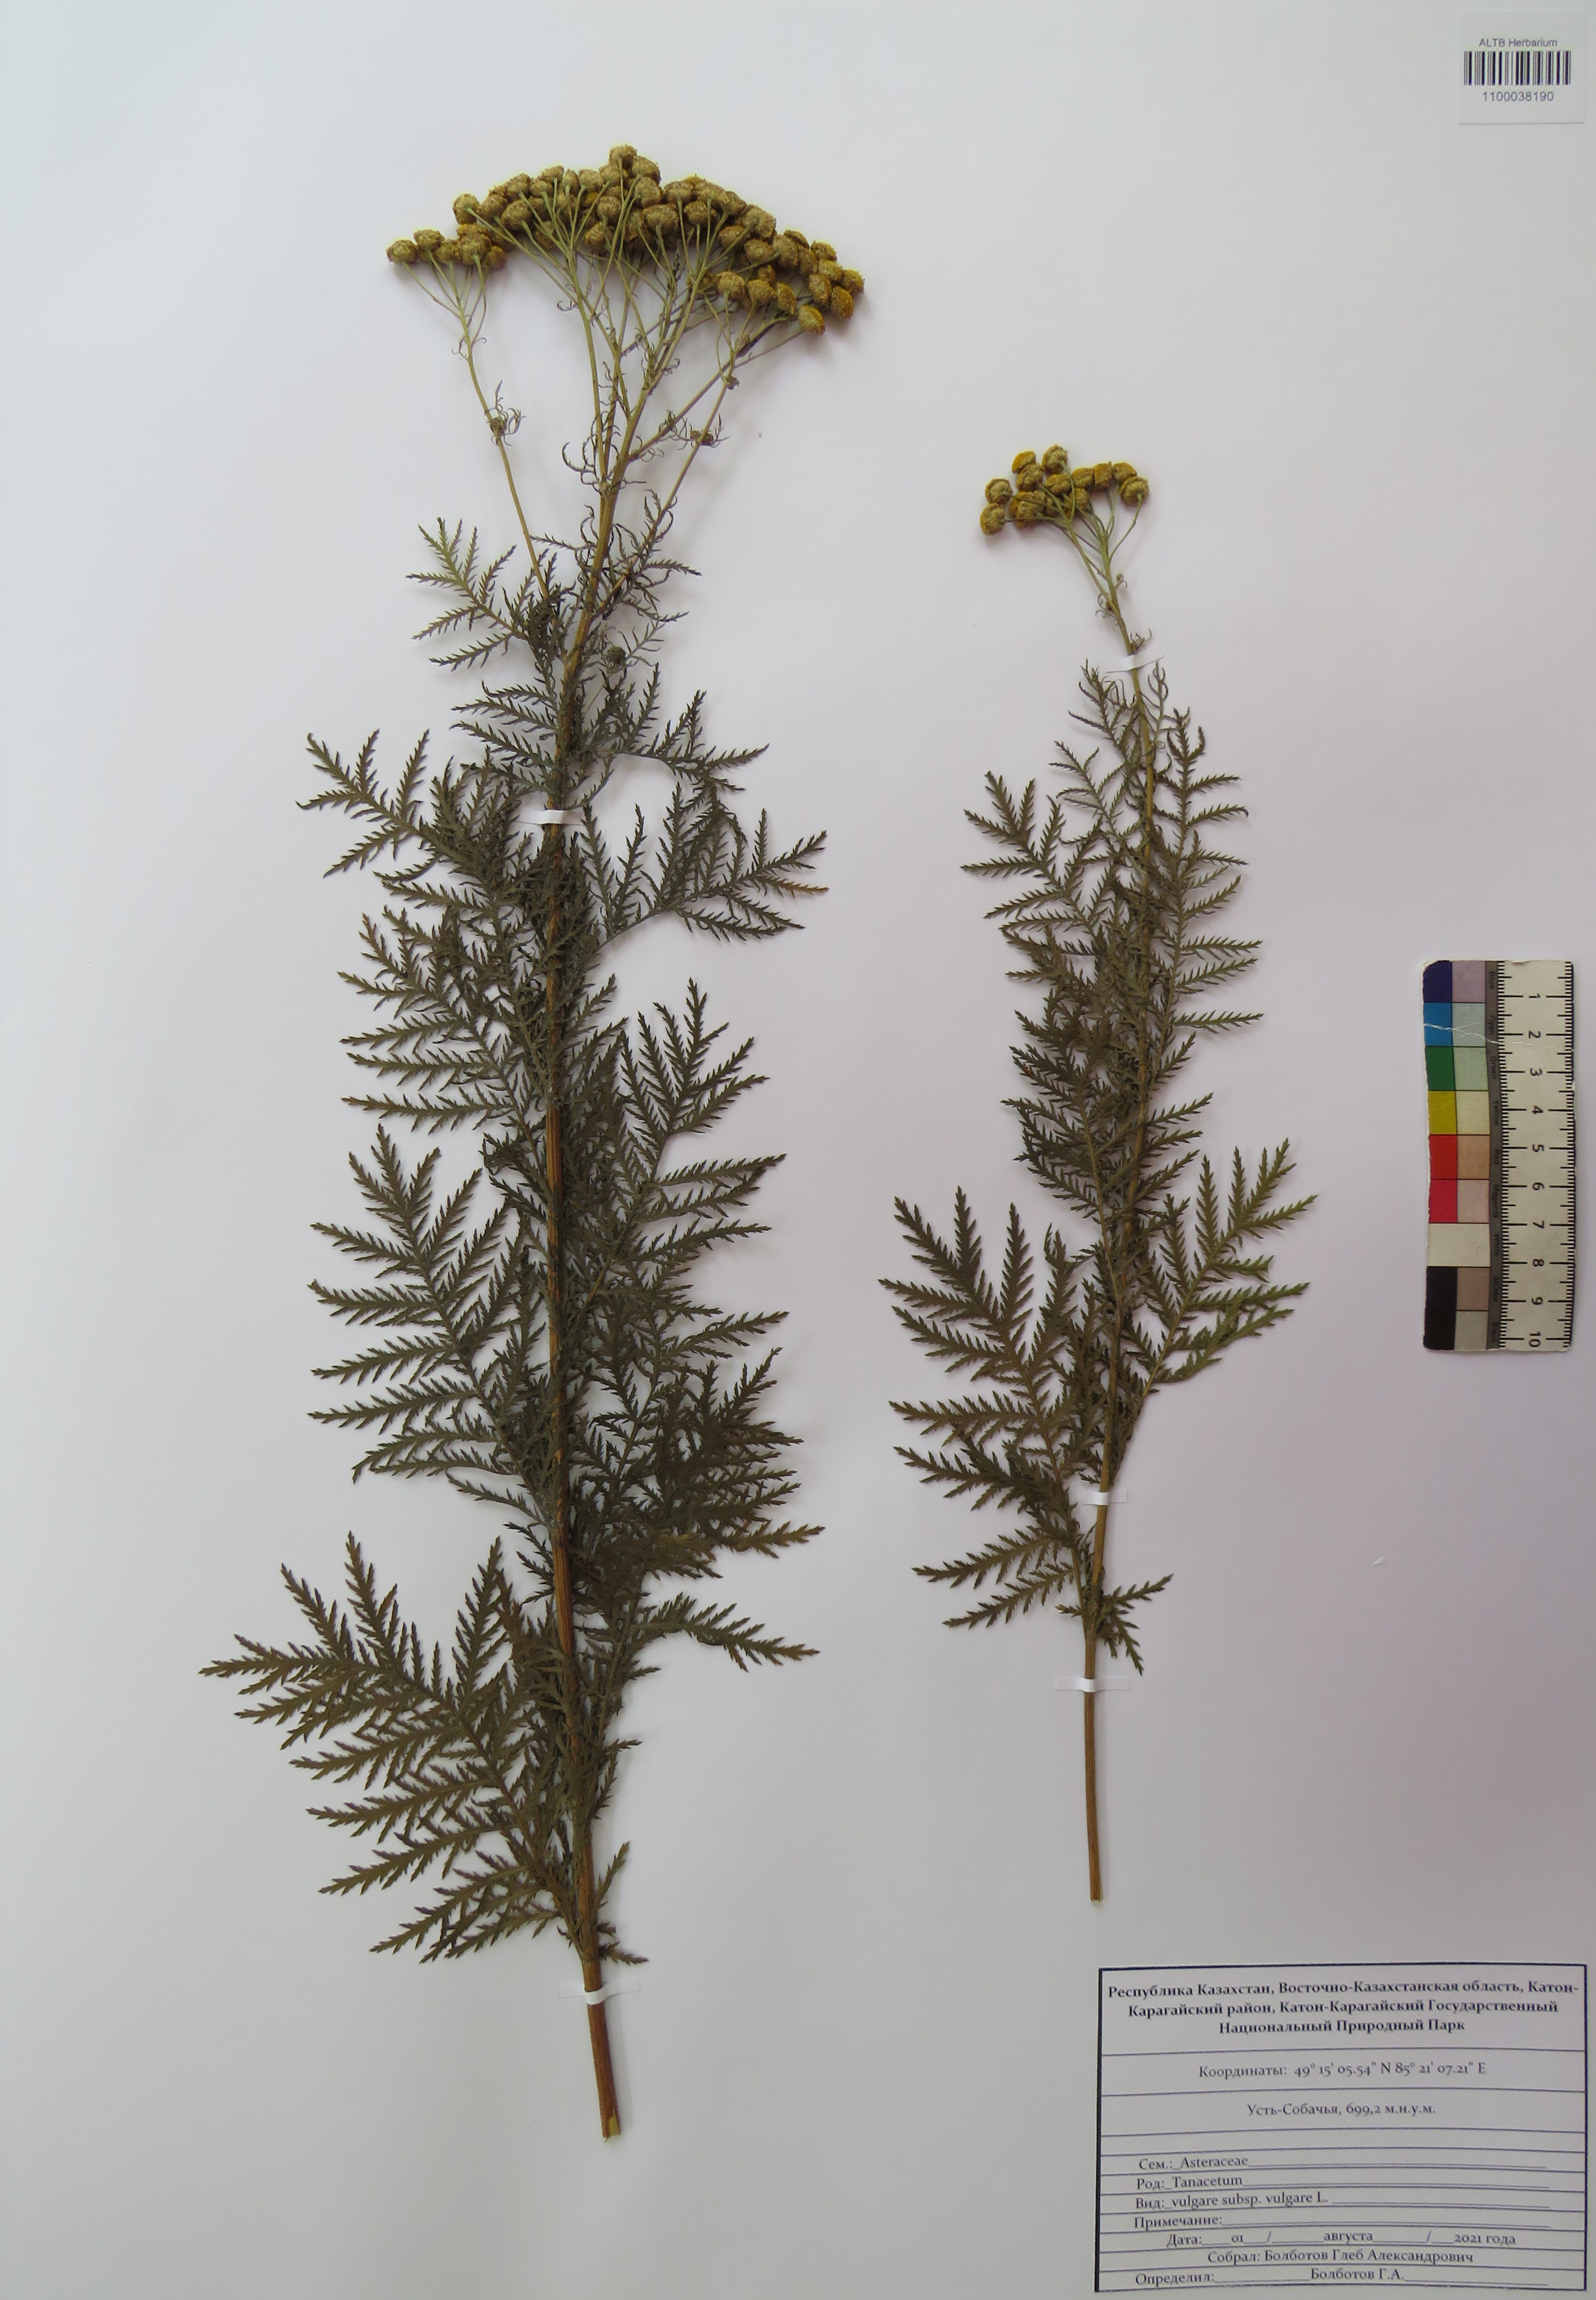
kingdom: Plantae
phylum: Tracheophyta
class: Magnoliopsida
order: Asterales
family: Asteraceae
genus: Tanacetum
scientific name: Tanacetum vulgare
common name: Common tansy
